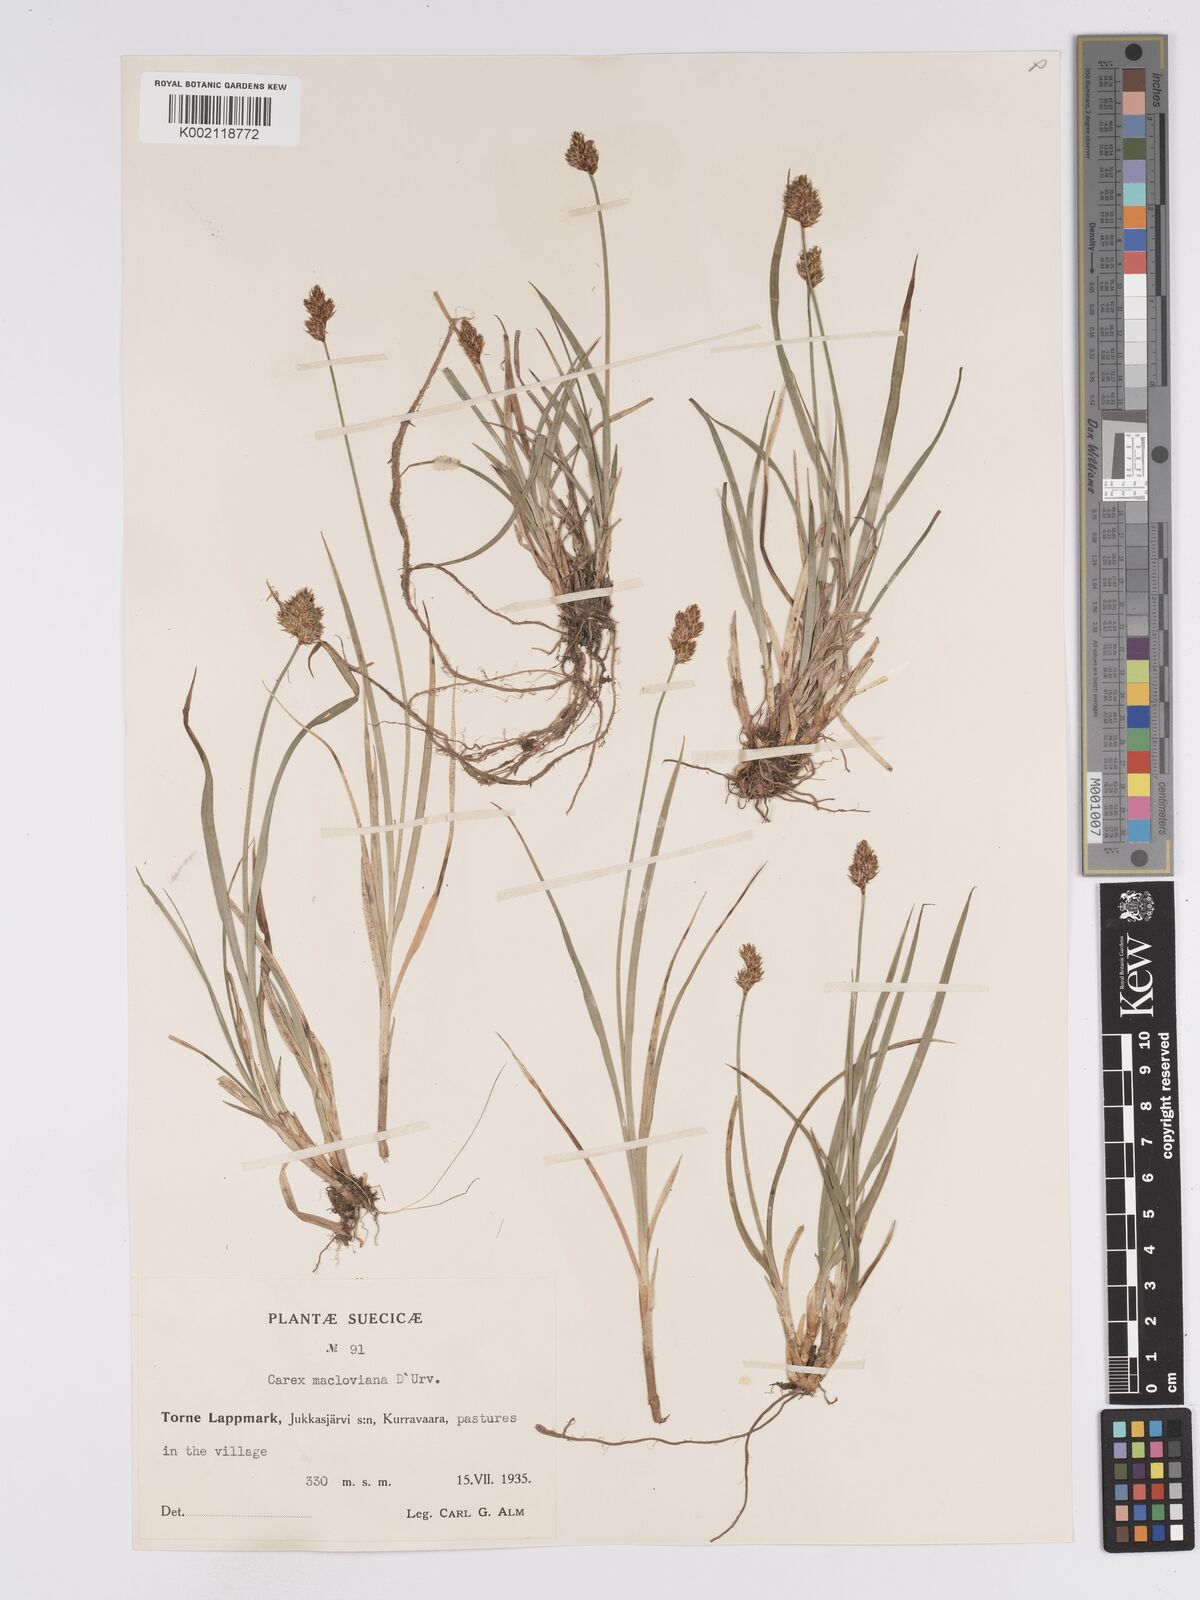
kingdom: Plantae
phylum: Tracheophyta
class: Liliopsida
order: Poales
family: Cyperaceae
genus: Carex
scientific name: Carex macloviana
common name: Falkland island sedge
